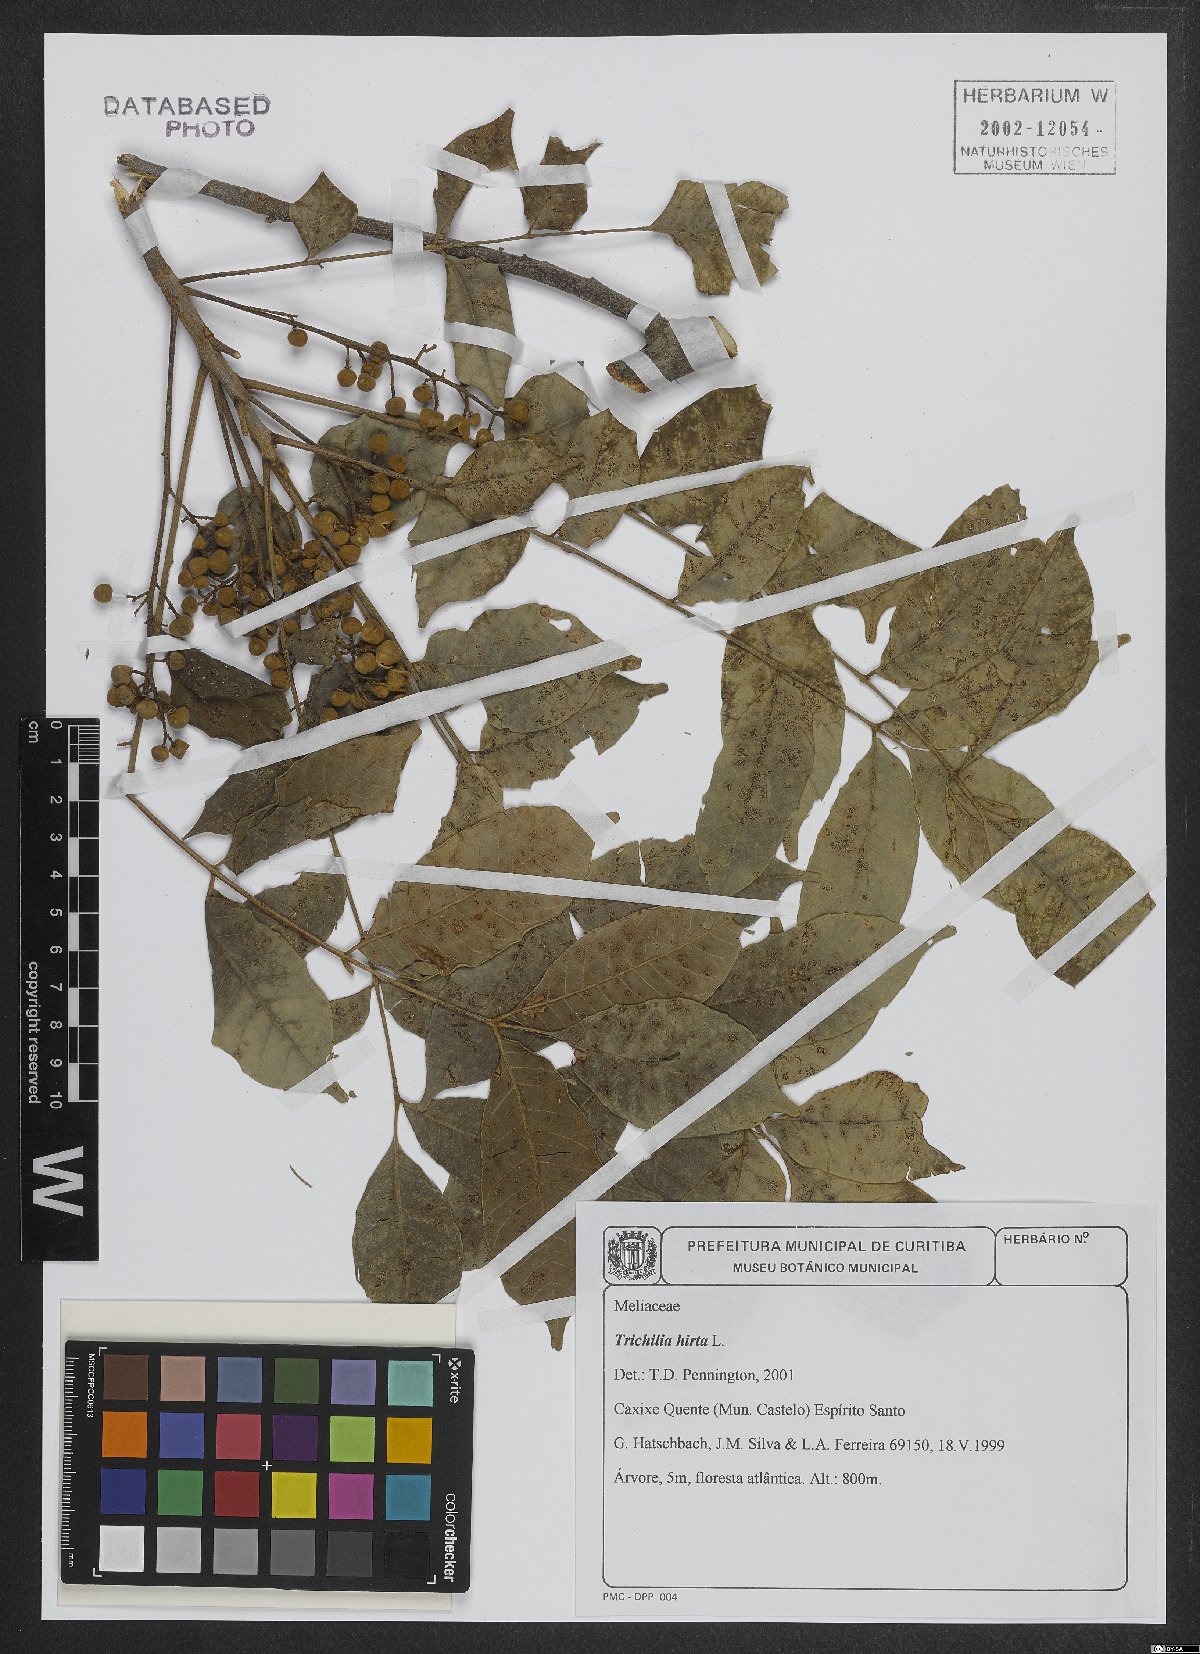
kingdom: Plantae
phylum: Tracheophyta
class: Magnoliopsida
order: Sapindales
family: Meliaceae
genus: Trichilia
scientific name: Trichilia hirta
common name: Red-cedar
